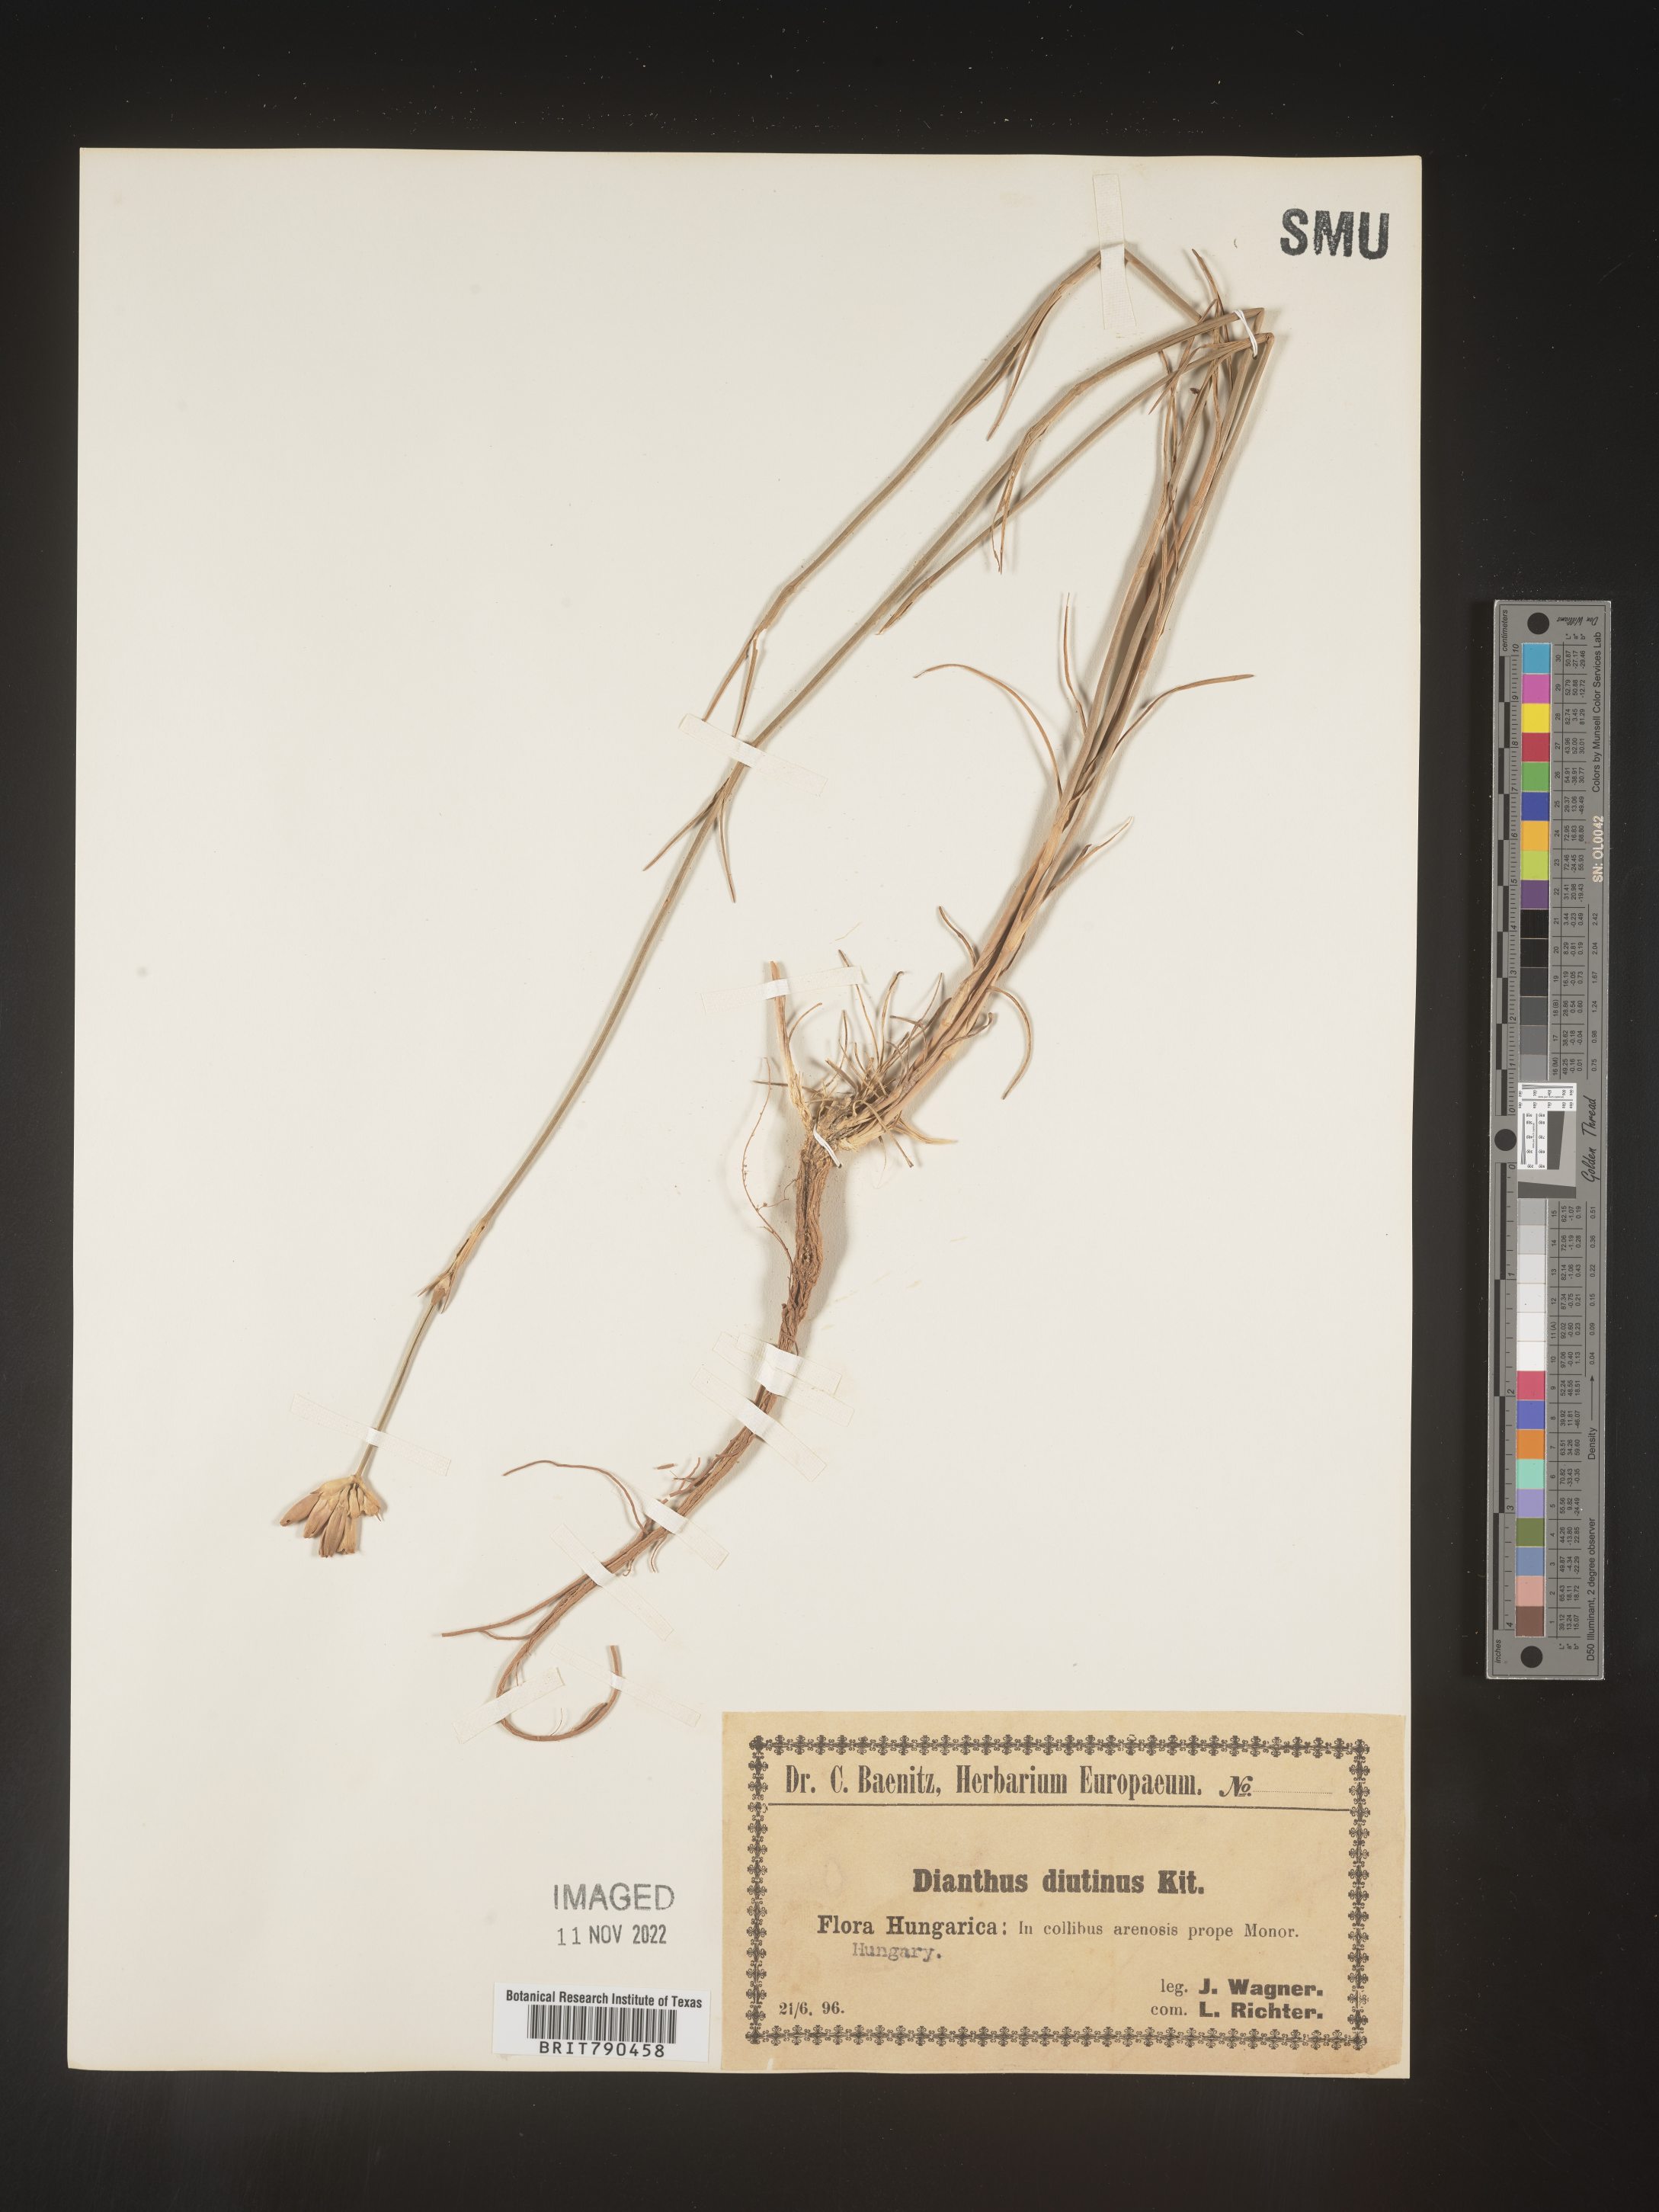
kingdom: Plantae
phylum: Tracheophyta
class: Magnoliopsida
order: Caryophyllales
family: Caryophyllaceae
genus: Dianthus
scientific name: Dianthus
